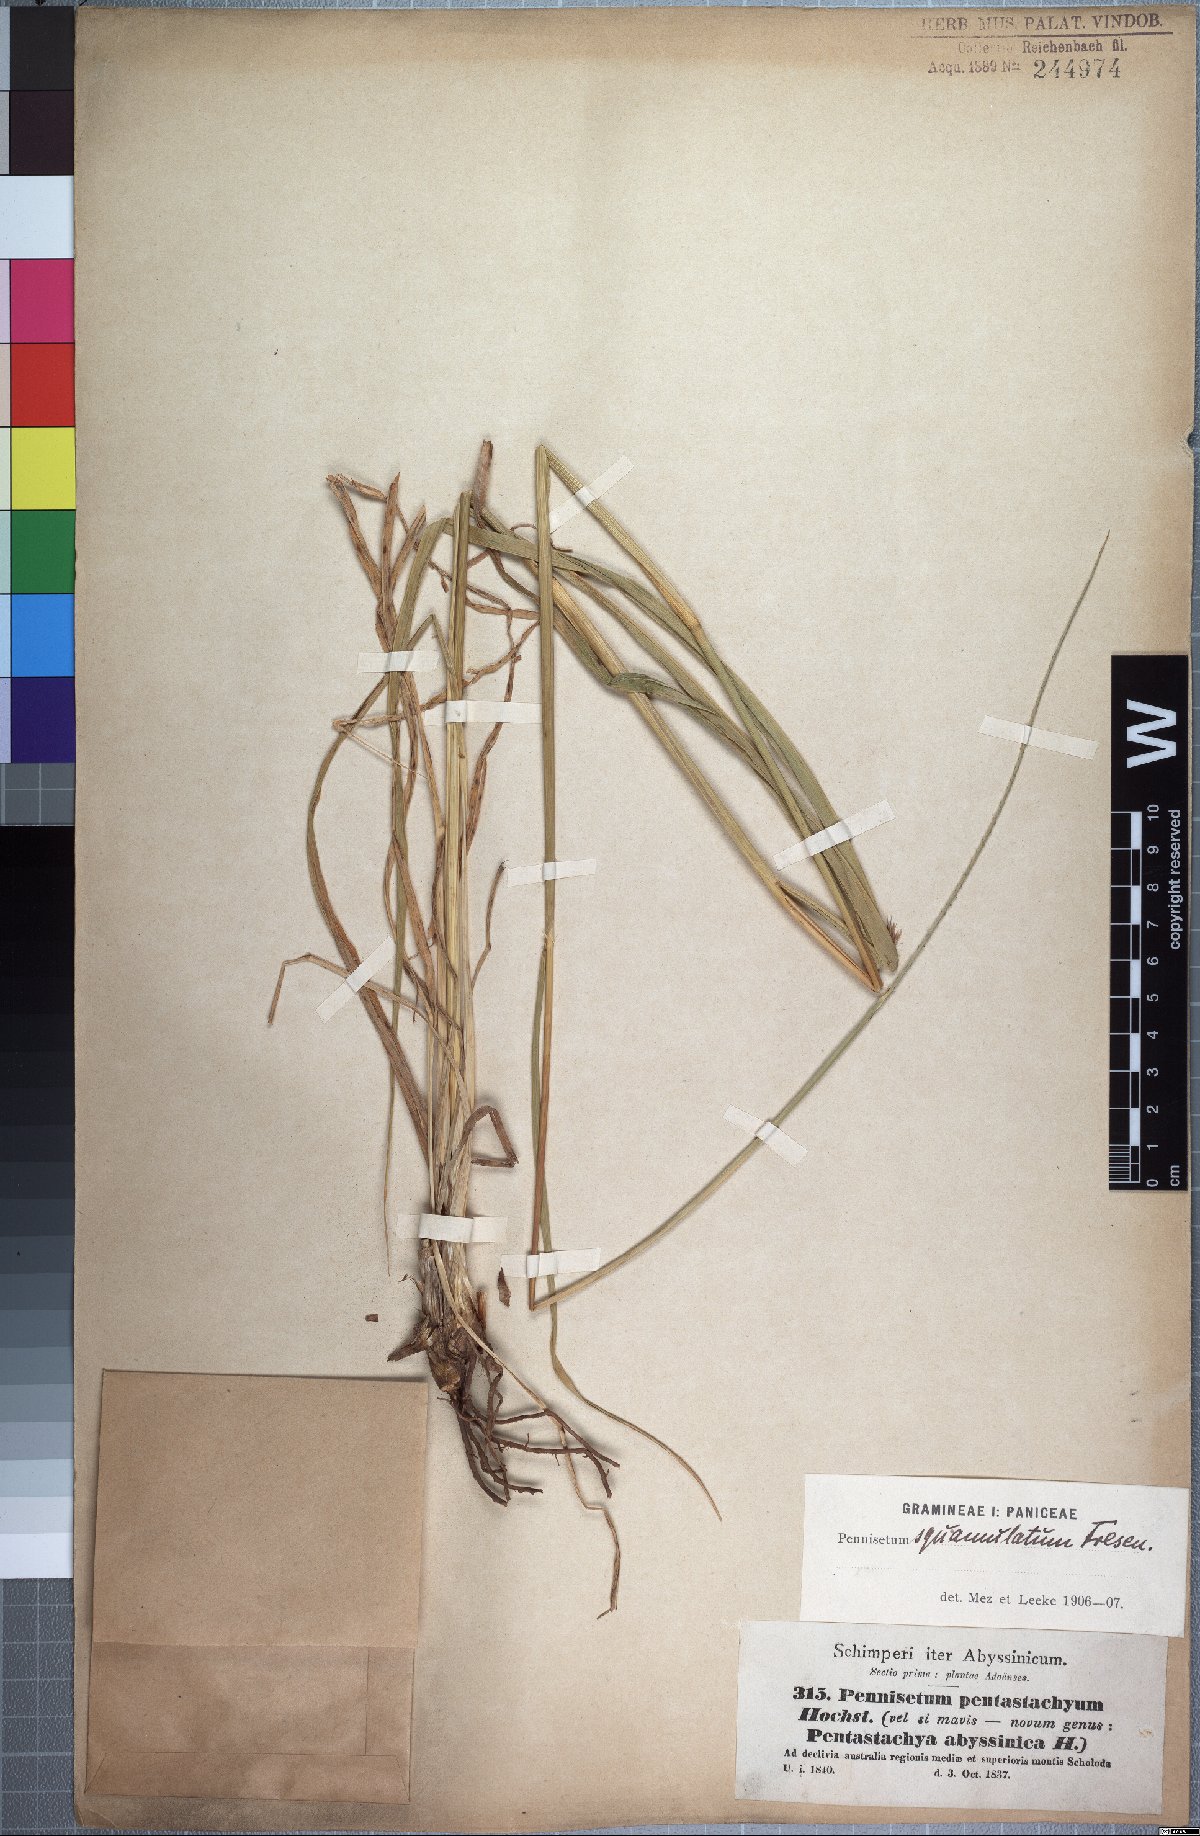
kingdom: Plantae
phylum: Tracheophyta
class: Liliopsida
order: Poales
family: Poaceae
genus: Cenchrus
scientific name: Cenchrus squamulatus
